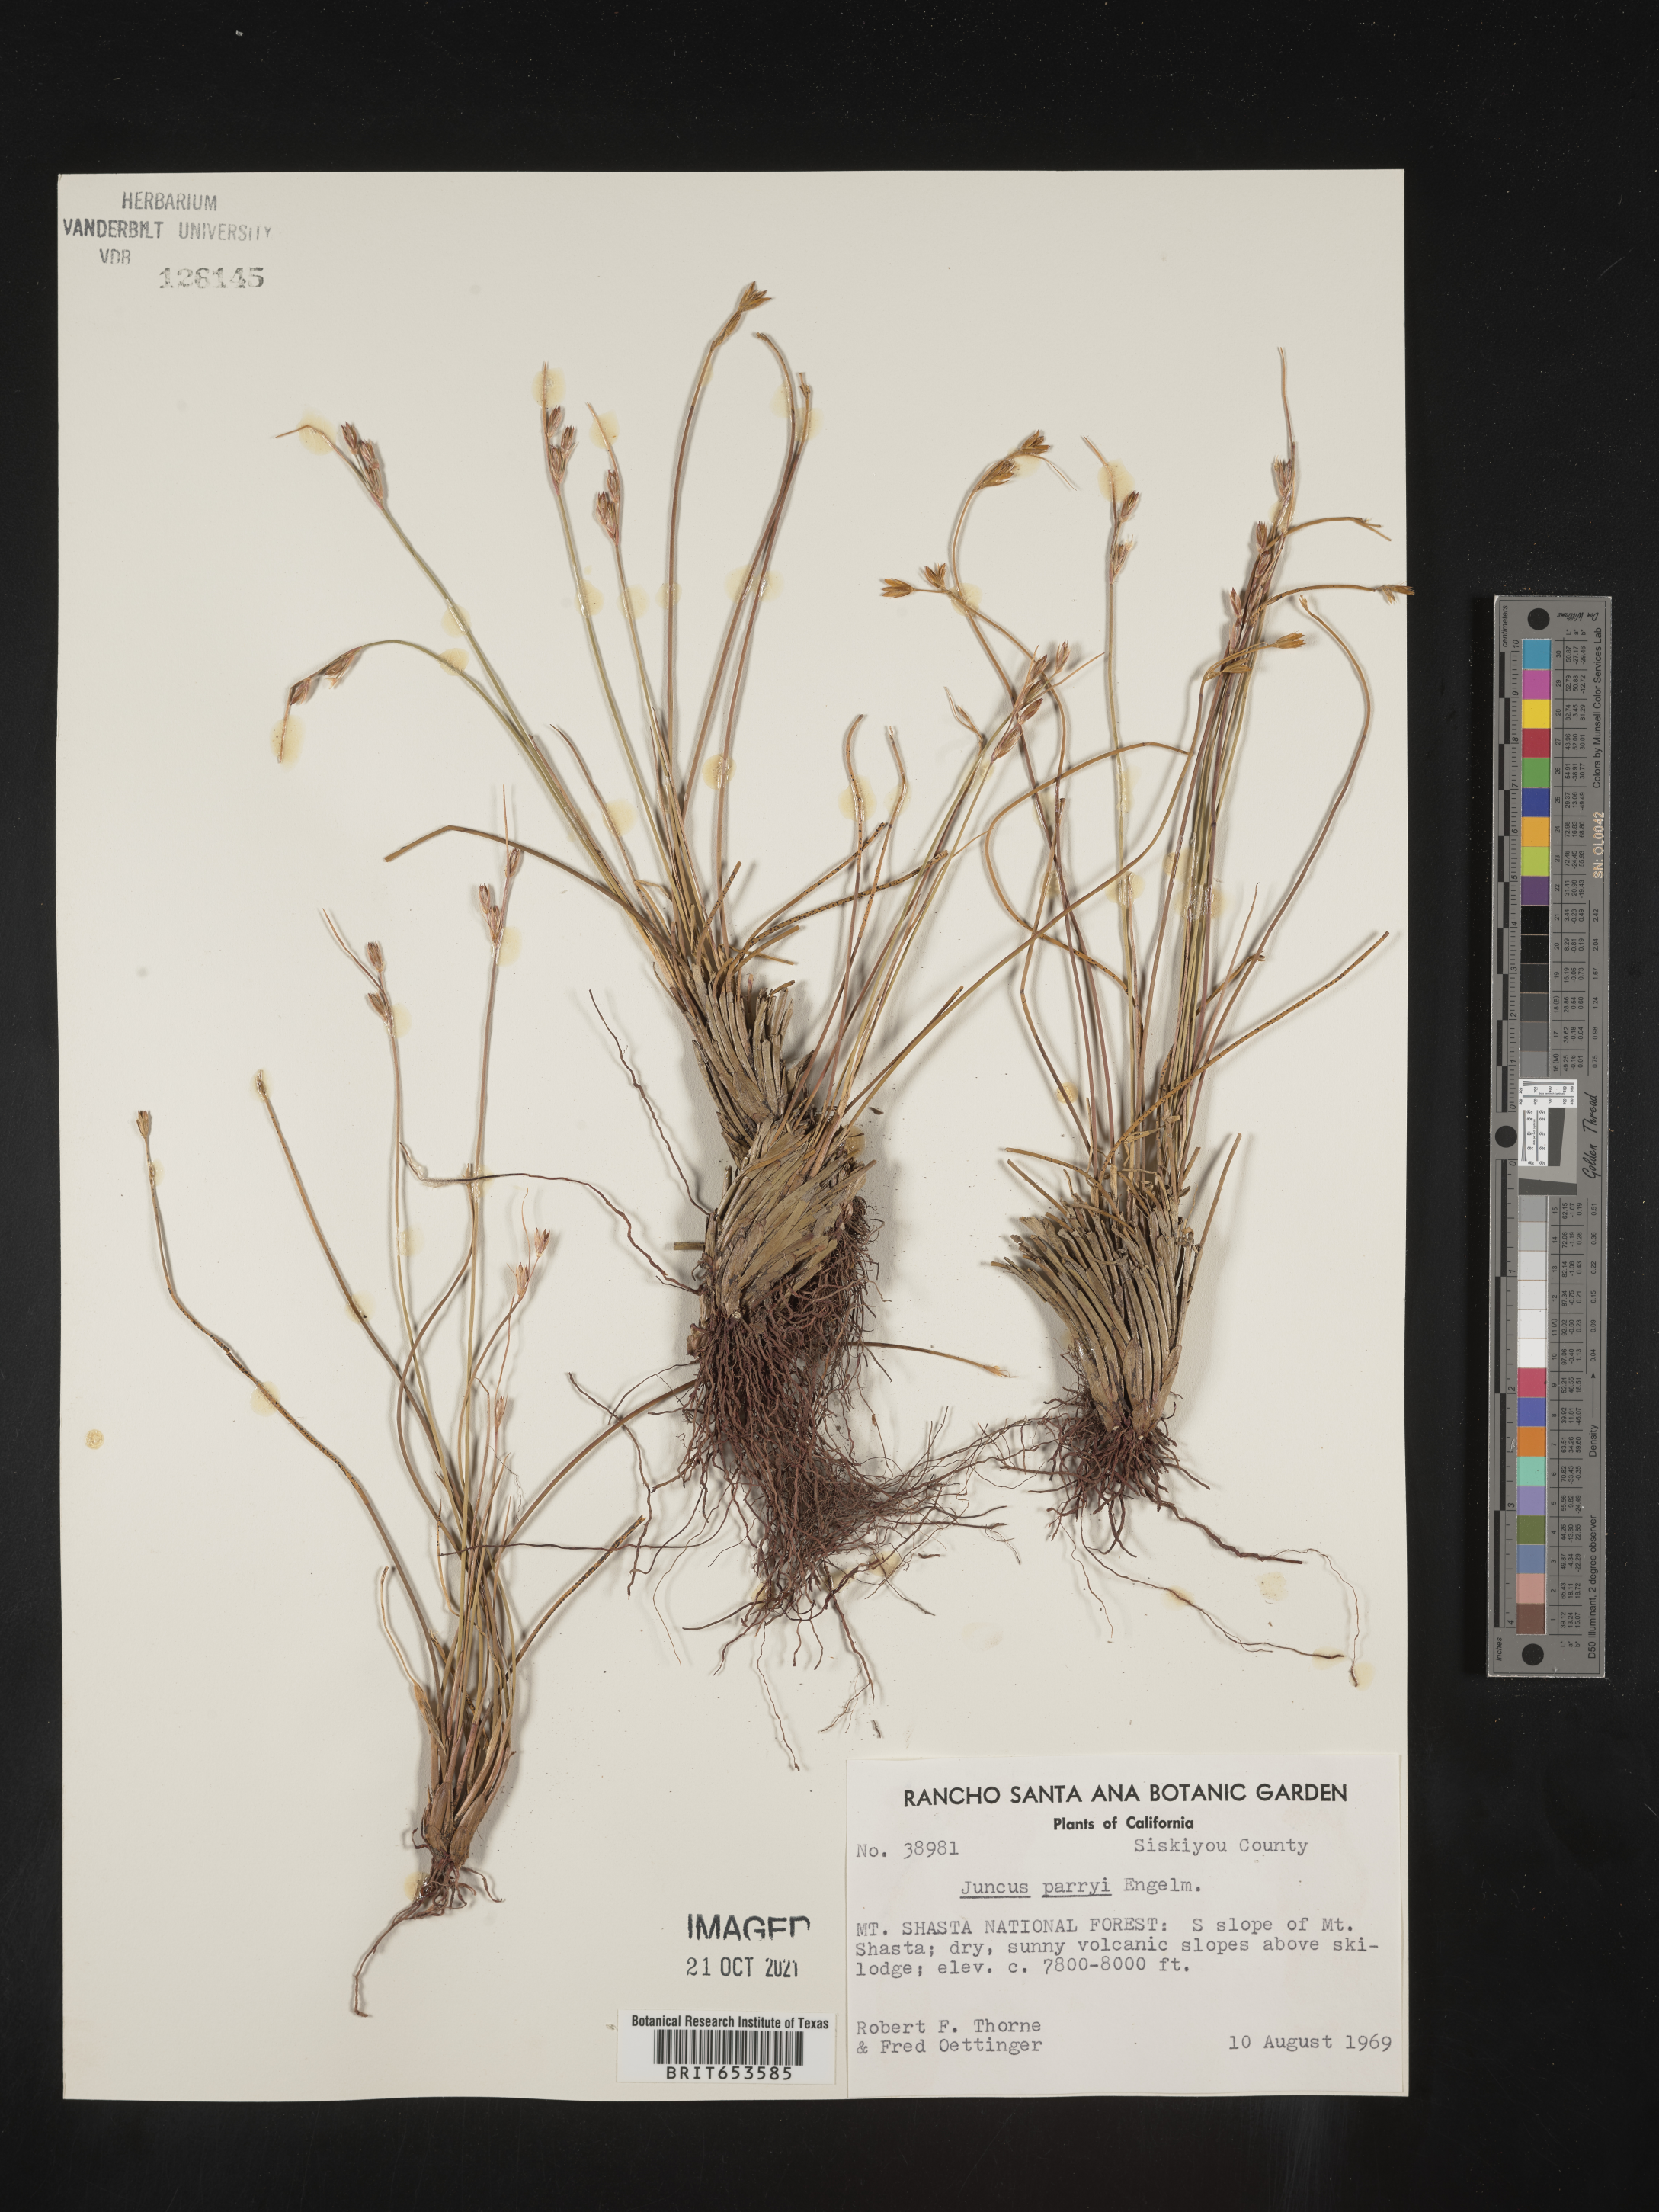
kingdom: Plantae
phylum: Tracheophyta
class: Liliopsida
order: Poales
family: Juncaceae
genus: Juncus
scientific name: Juncus parryi
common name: Parry's rush
